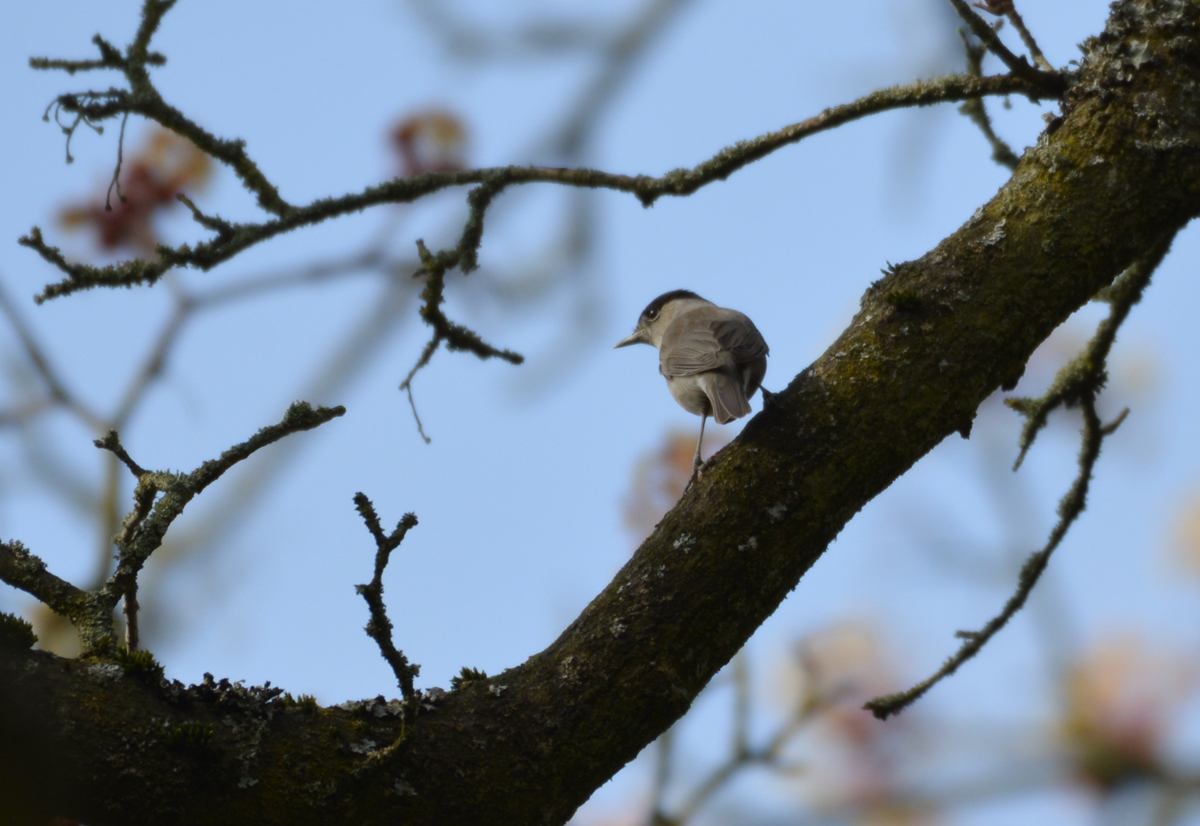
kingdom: Animalia
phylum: Chordata
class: Aves
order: Passeriformes
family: Sylviidae
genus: Sylvia
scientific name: Sylvia atricapilla
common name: Eurasian blackcap
